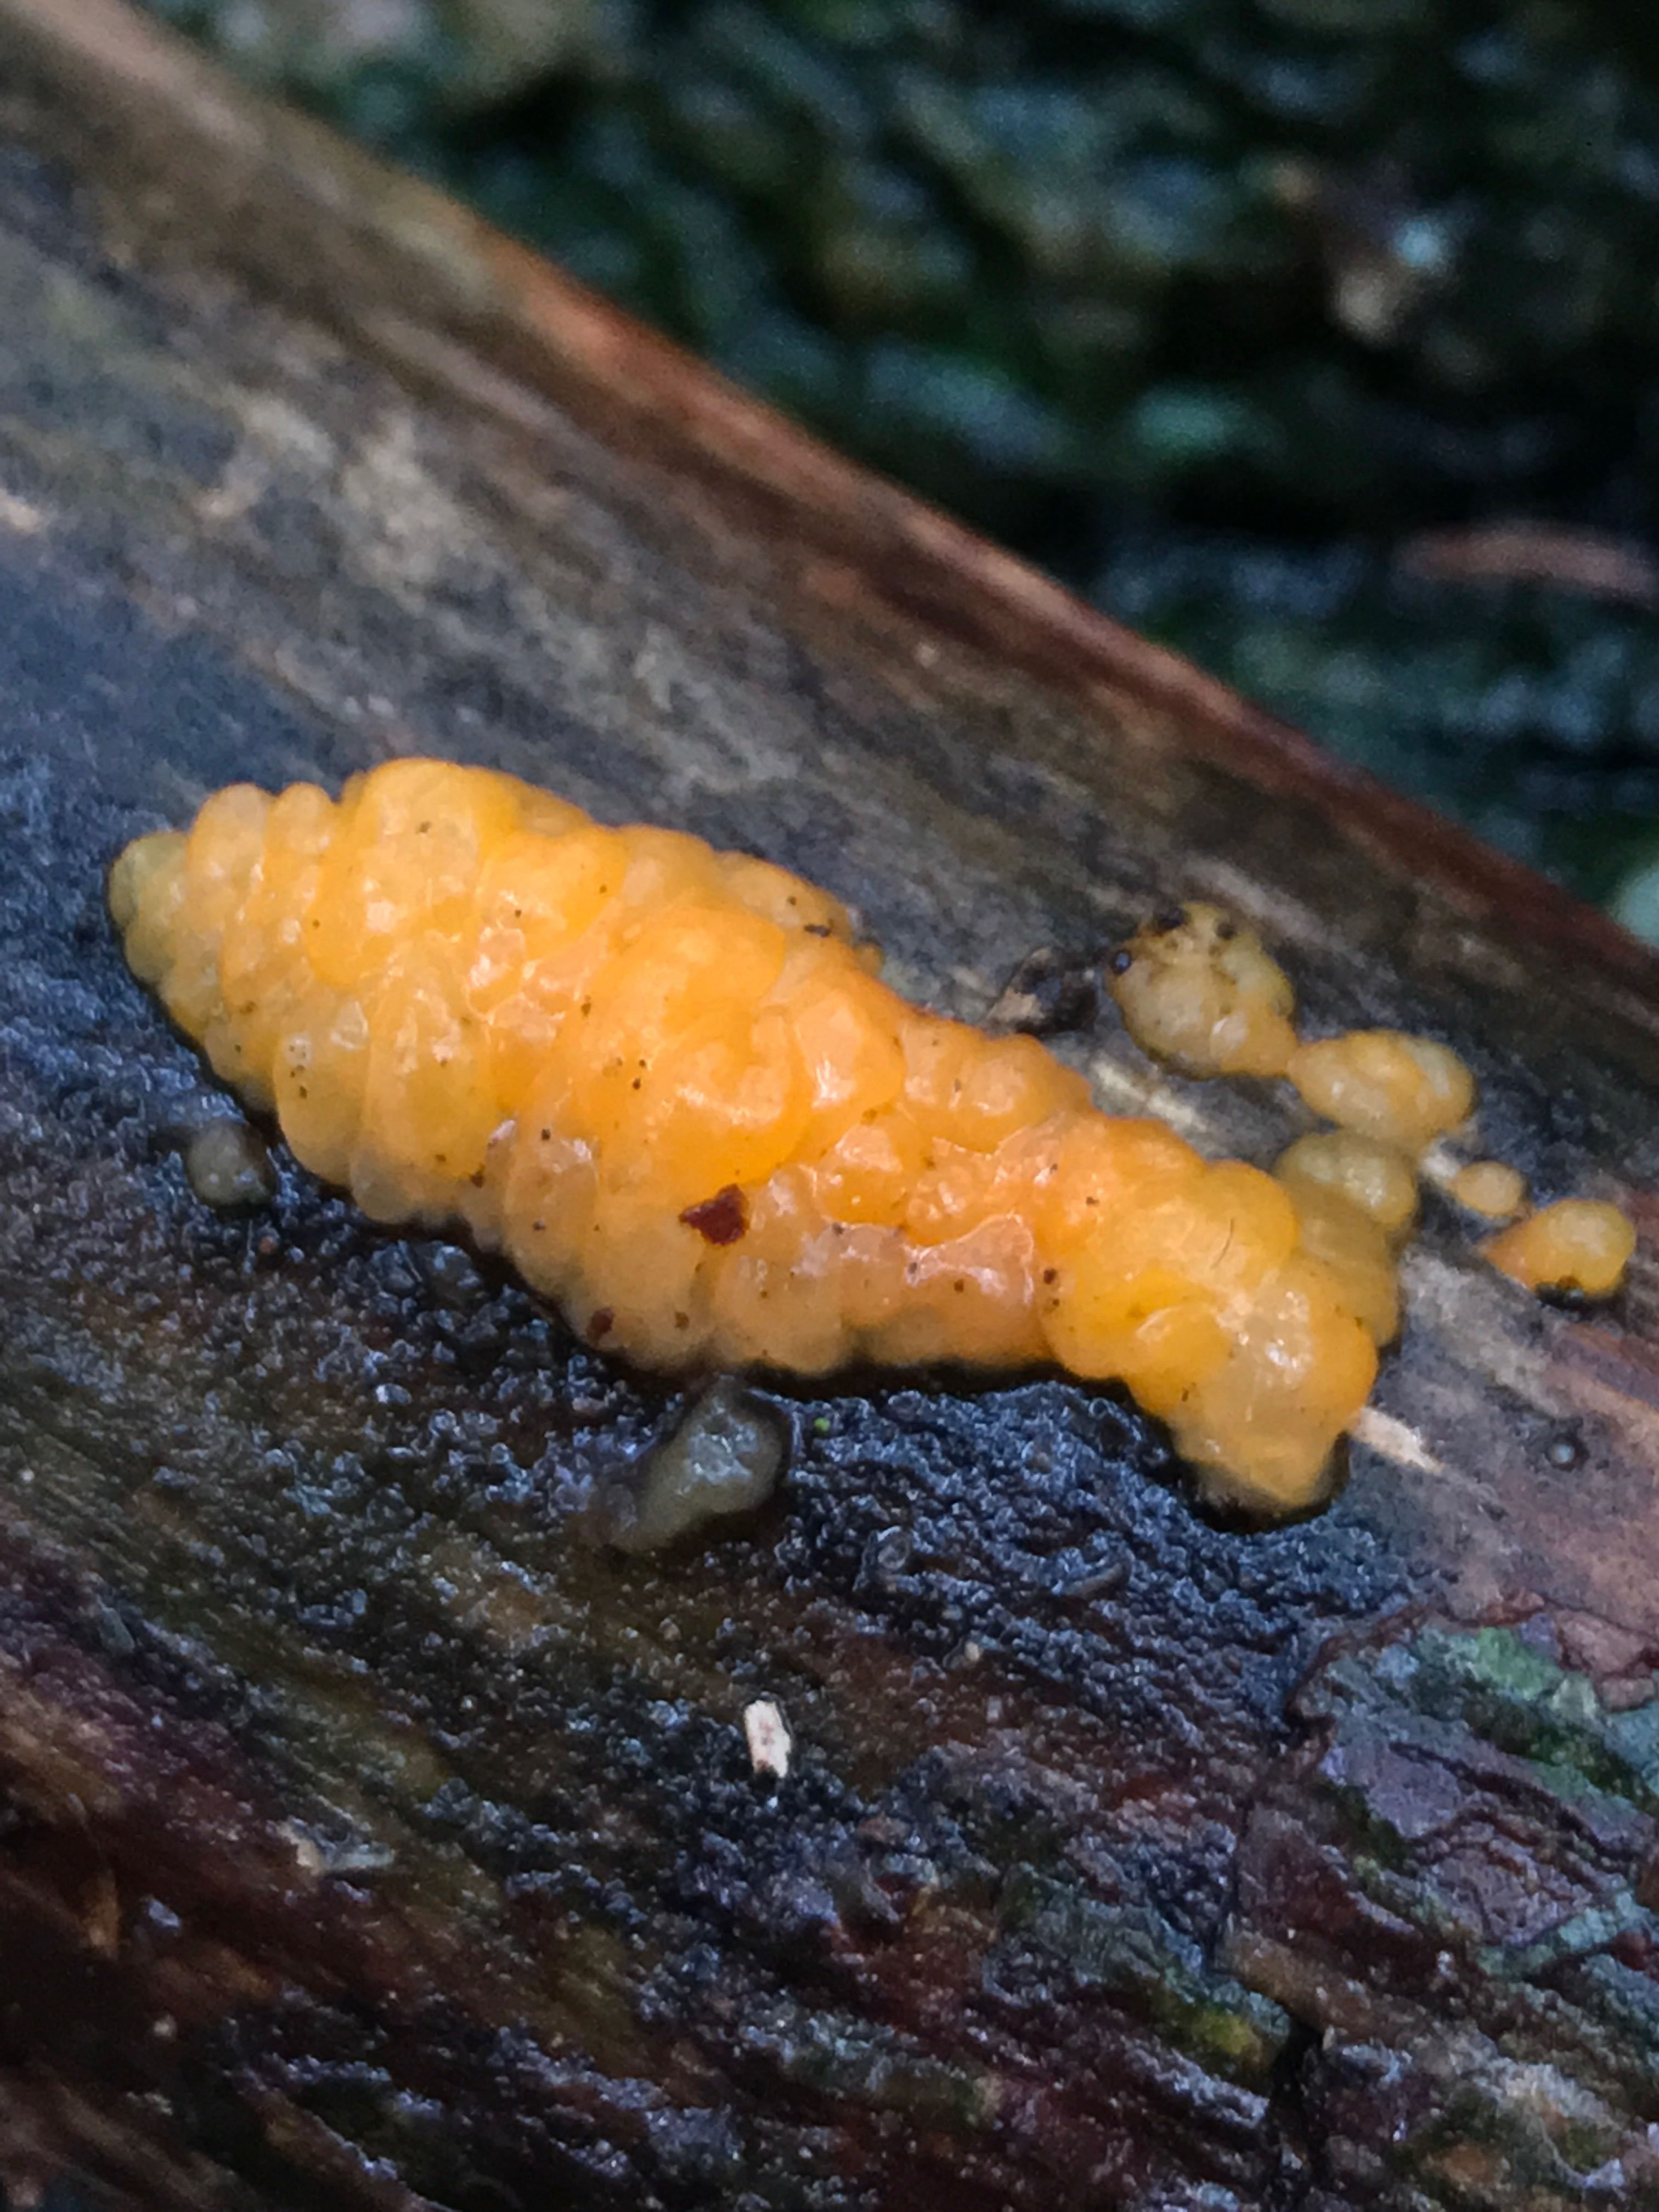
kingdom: Fungi
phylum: Basidiomycota
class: Dacrymycetes
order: Dacrymycetales
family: Dacrymycetaceae
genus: Dacrymyces
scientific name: Dacrymyces stillatus
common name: almindelig tåresvamp
